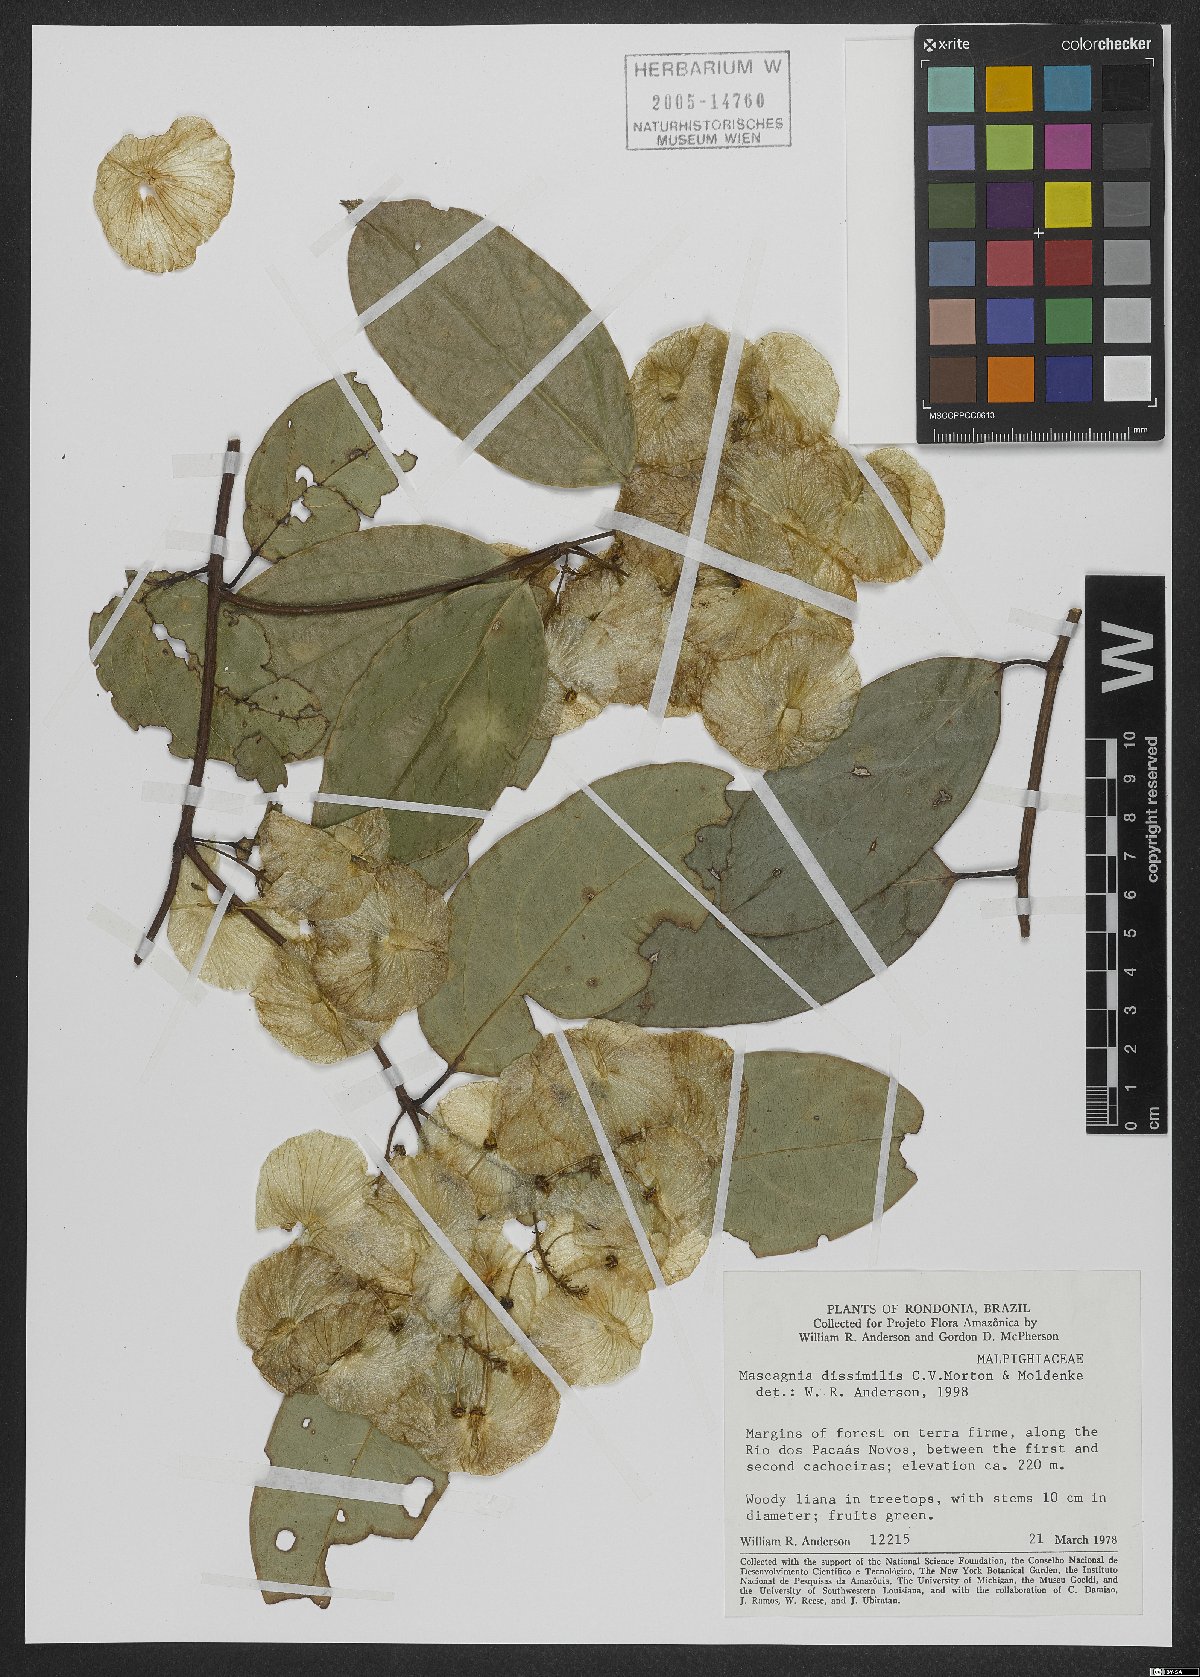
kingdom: Plantae
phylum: Tracheophyta
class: Magnoliopsida
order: Malpighiales
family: Malpighiaceae
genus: Mascagnia
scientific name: Mascagnia dissimilis
